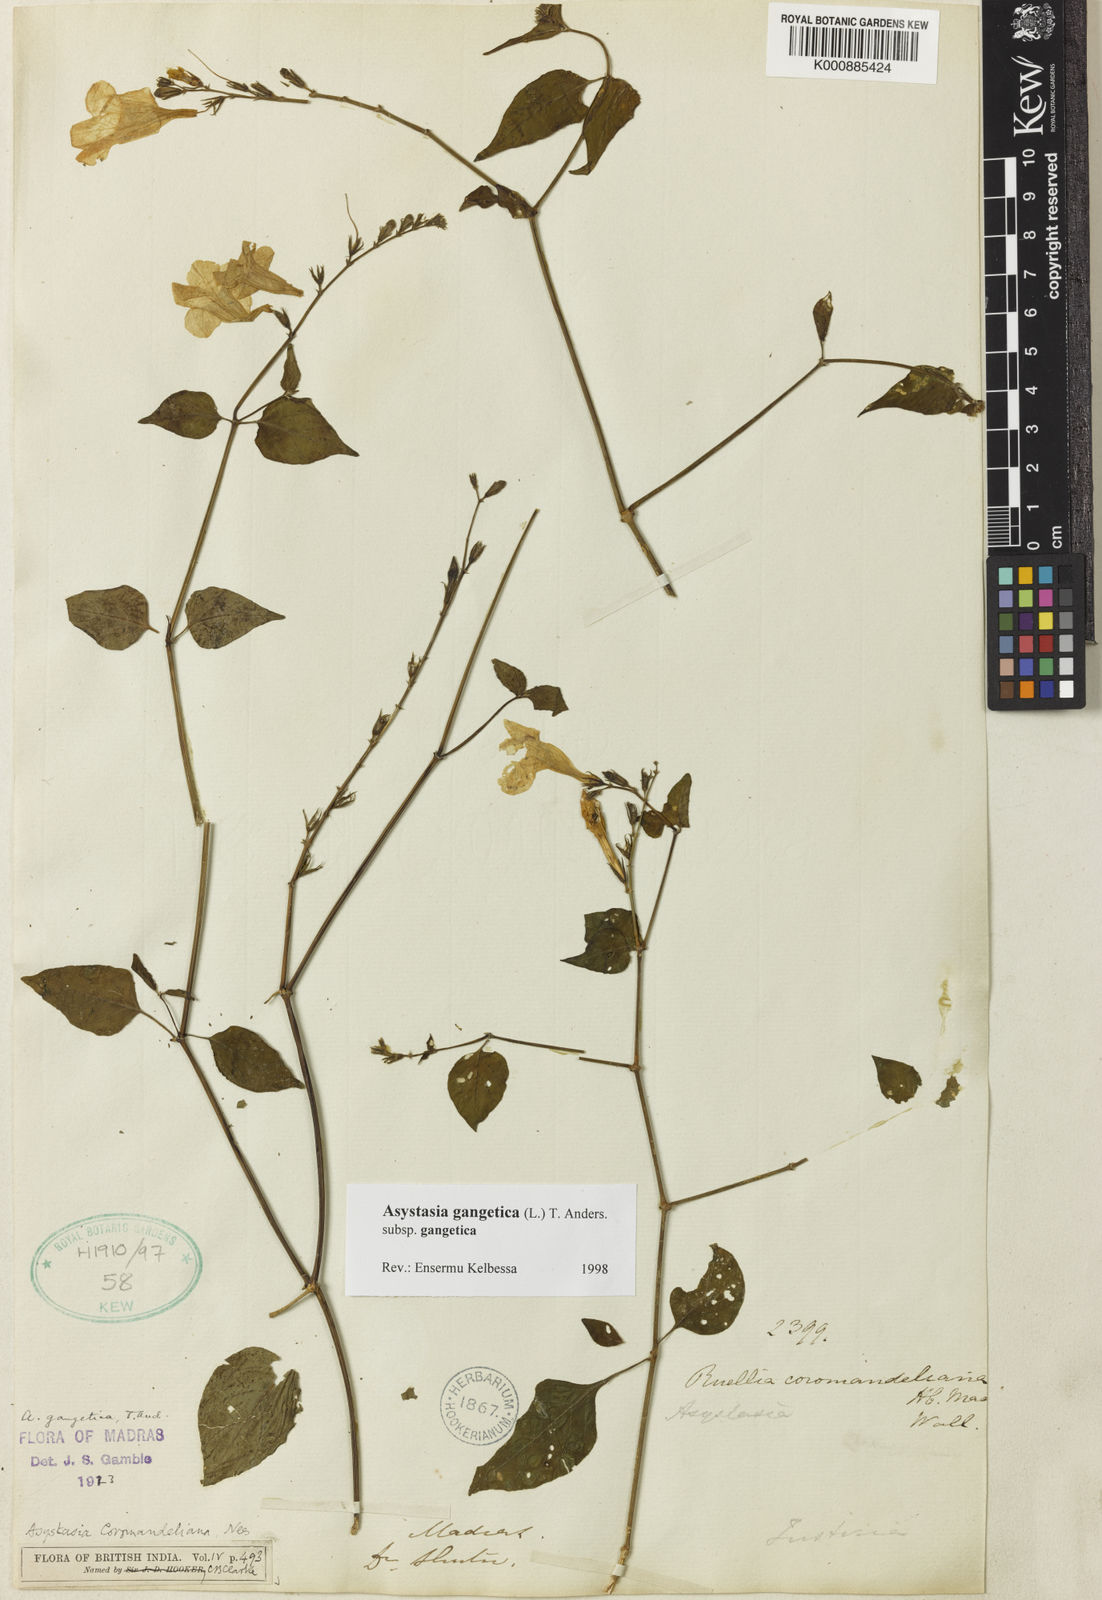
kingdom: Plantae
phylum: Tracheophyta
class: Magnoliopsida
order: Lamiales
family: Acanthaceae
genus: Asystasia
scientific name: Asystasia gangetica
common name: Chinese violet
